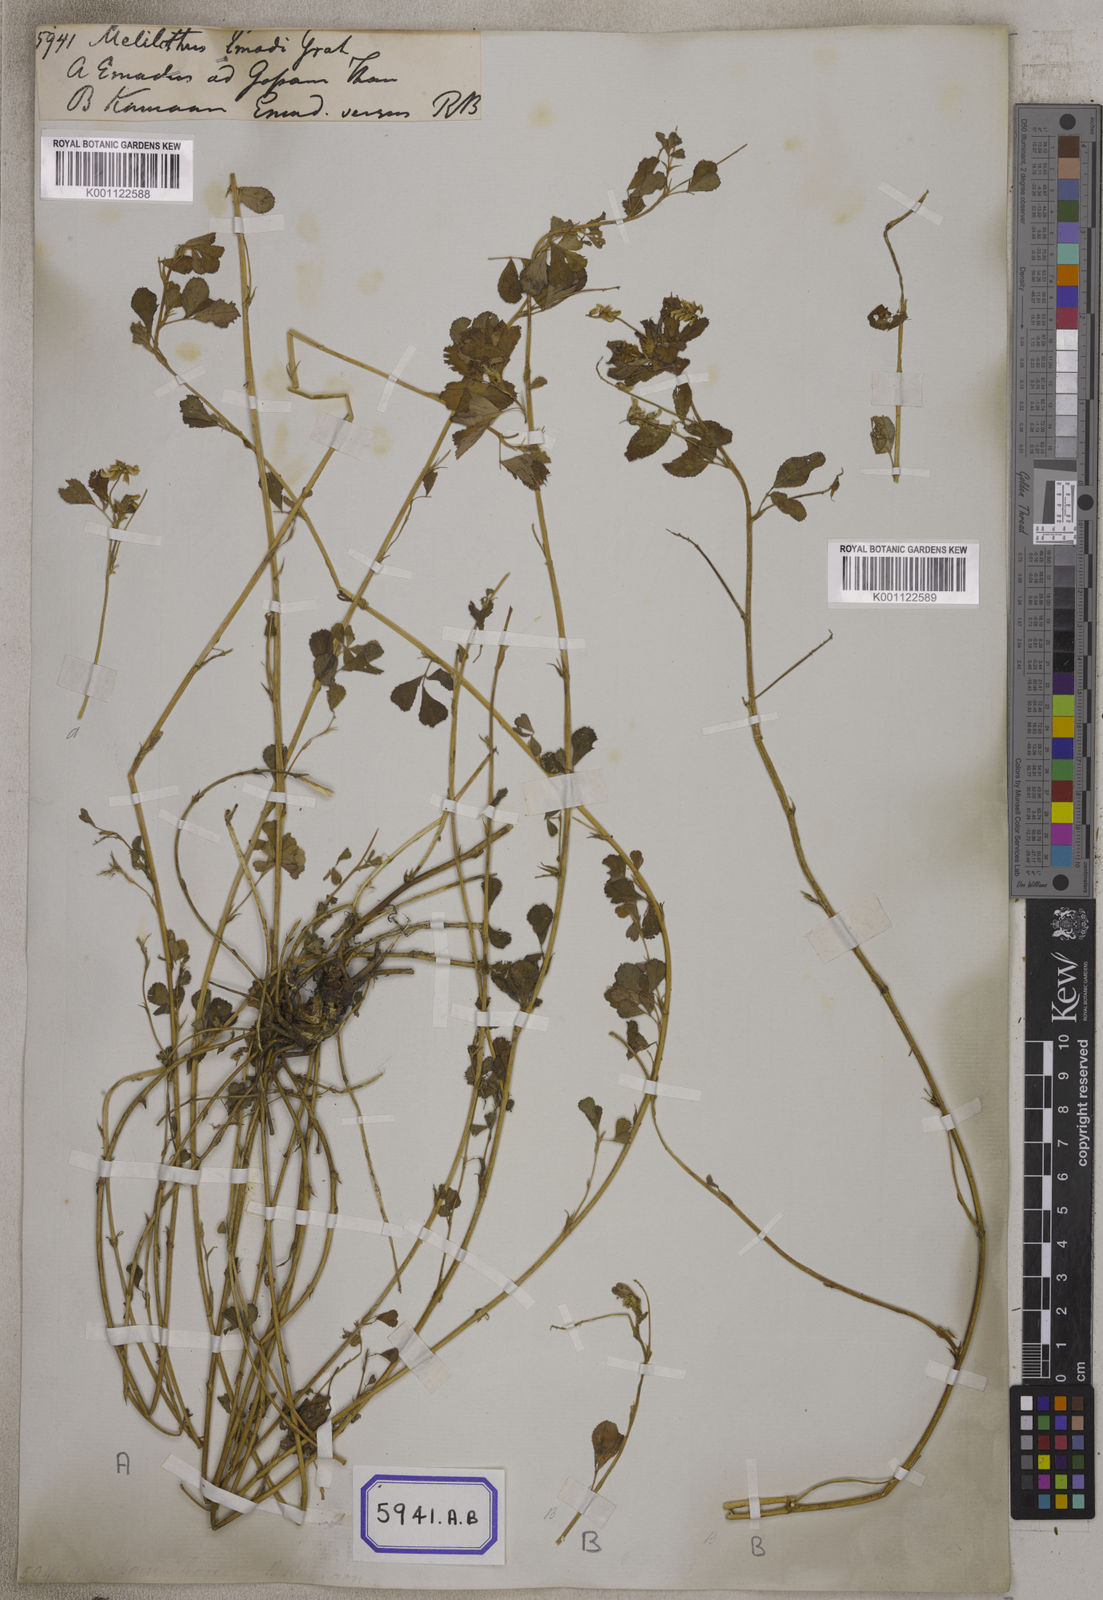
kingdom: Plantae
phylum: Tracheophyta
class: Magnoliopsida
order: Fabales
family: Fabaceae
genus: Trigonella
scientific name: Trigonella emodi
